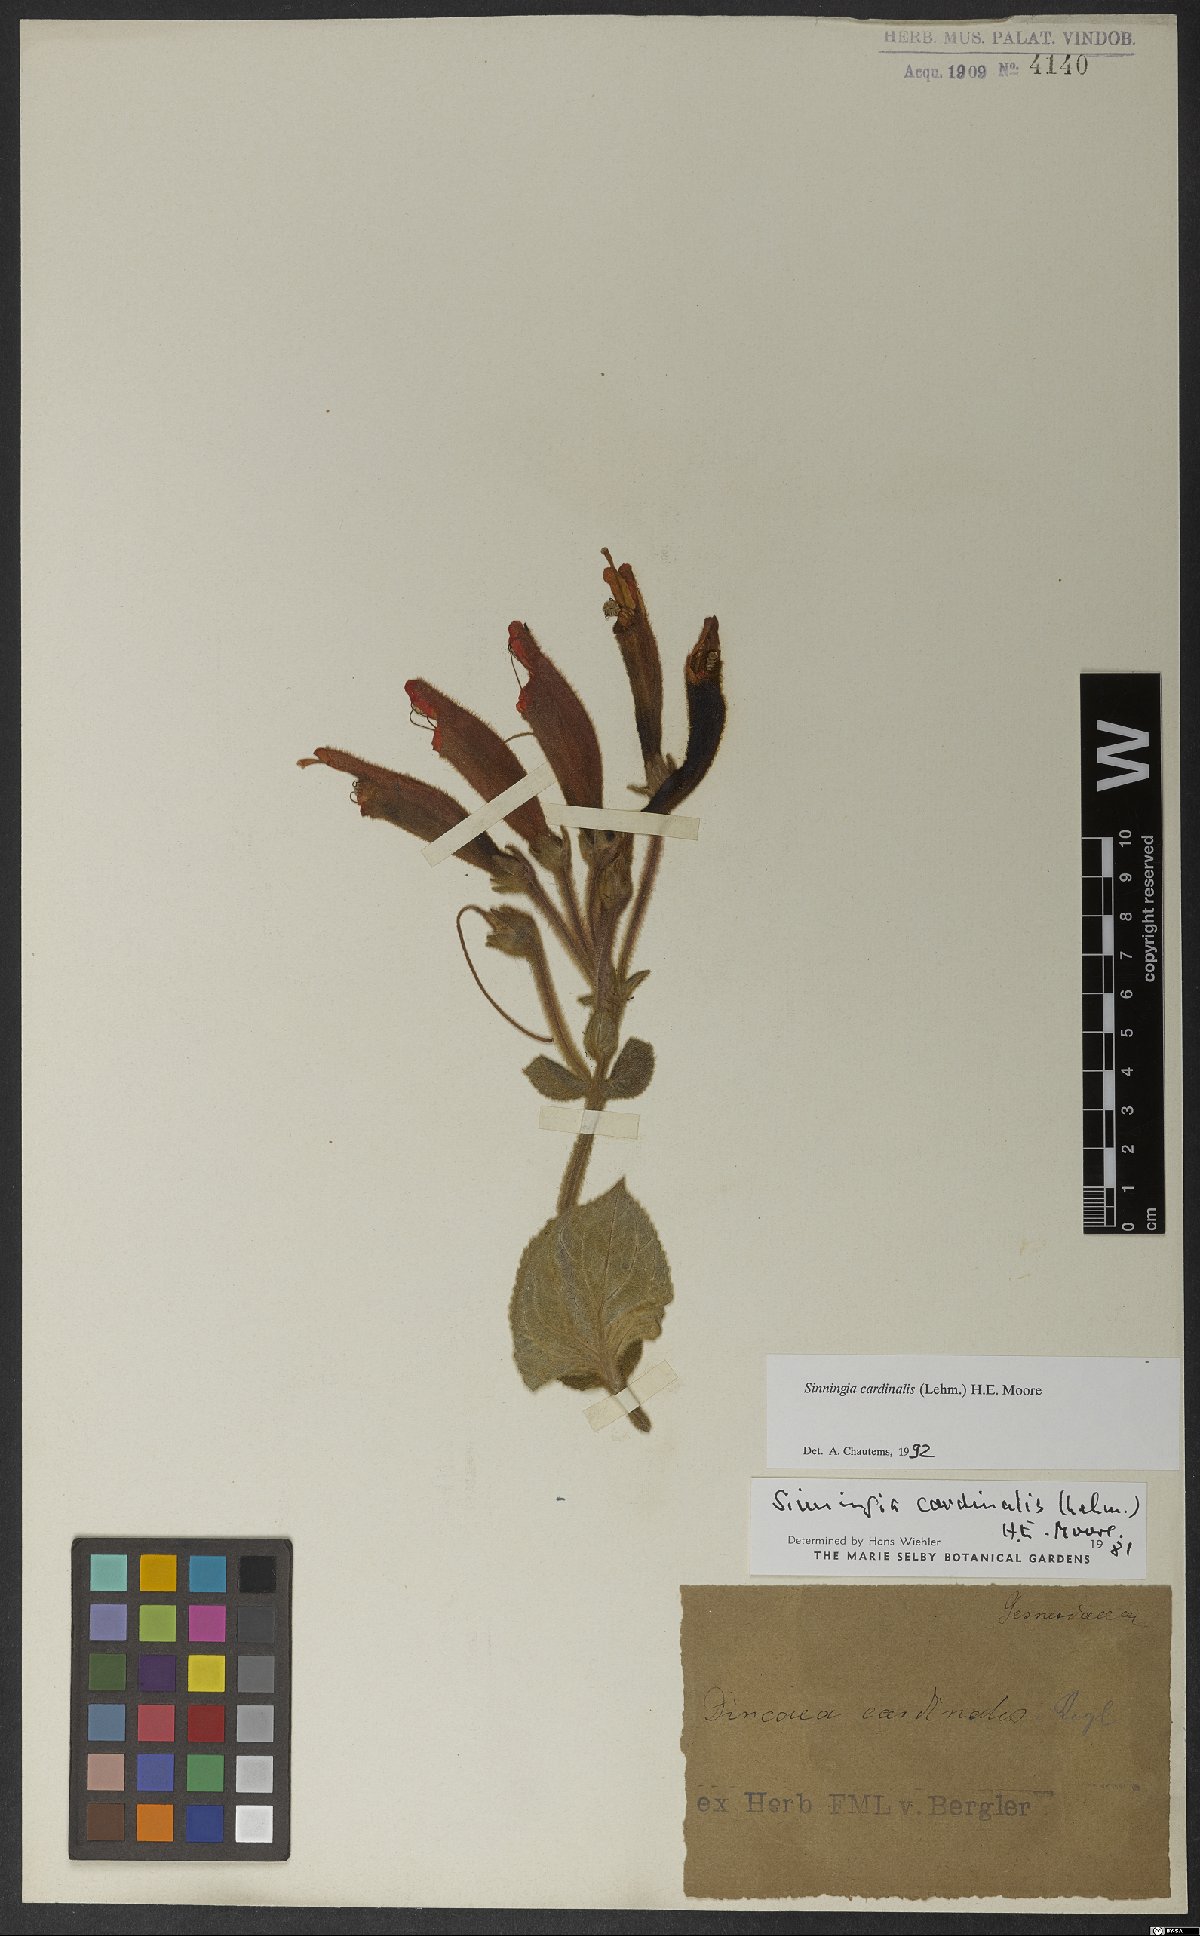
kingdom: Plantae
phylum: Tracheophyta
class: Magnoliopsida
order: Lamiales
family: Gesneriaceae
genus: Sinningia
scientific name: Sinningia cardinalis
